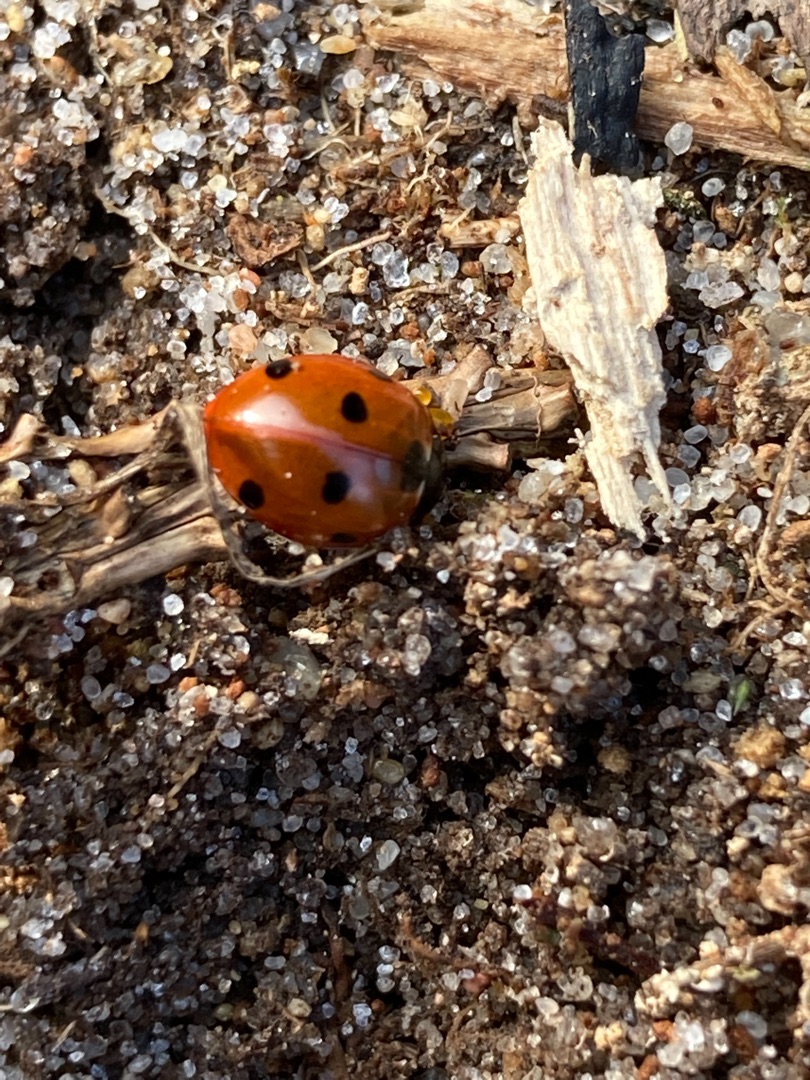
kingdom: Animalia
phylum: Arthropoda
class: Insecta
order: Coleoptera
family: Coccinellidae
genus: Coccinella
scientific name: Coccinella septempunctata
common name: Syvplettet mariehøne
